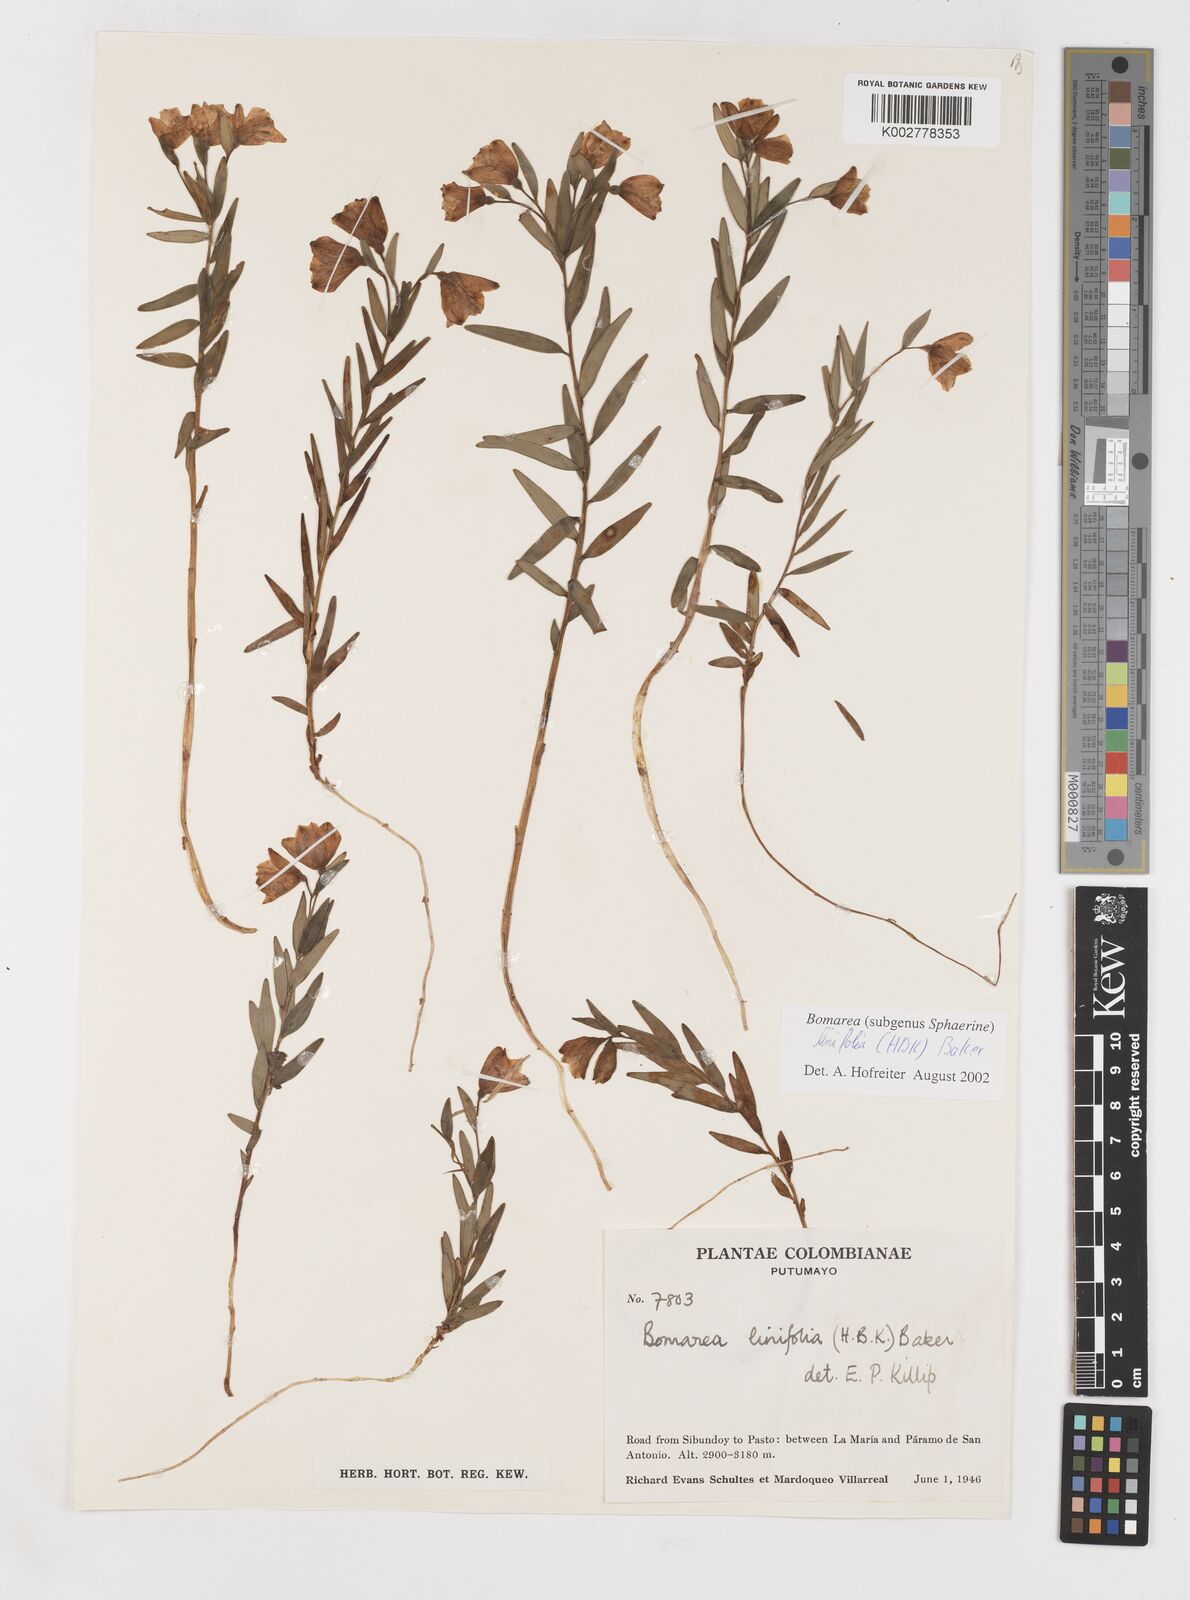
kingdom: Plantae
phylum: Tracheophyta
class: Liliopsida
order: Liliales
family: Alstroemeriaceae
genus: Bomarea
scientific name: Bomarea linifolia
